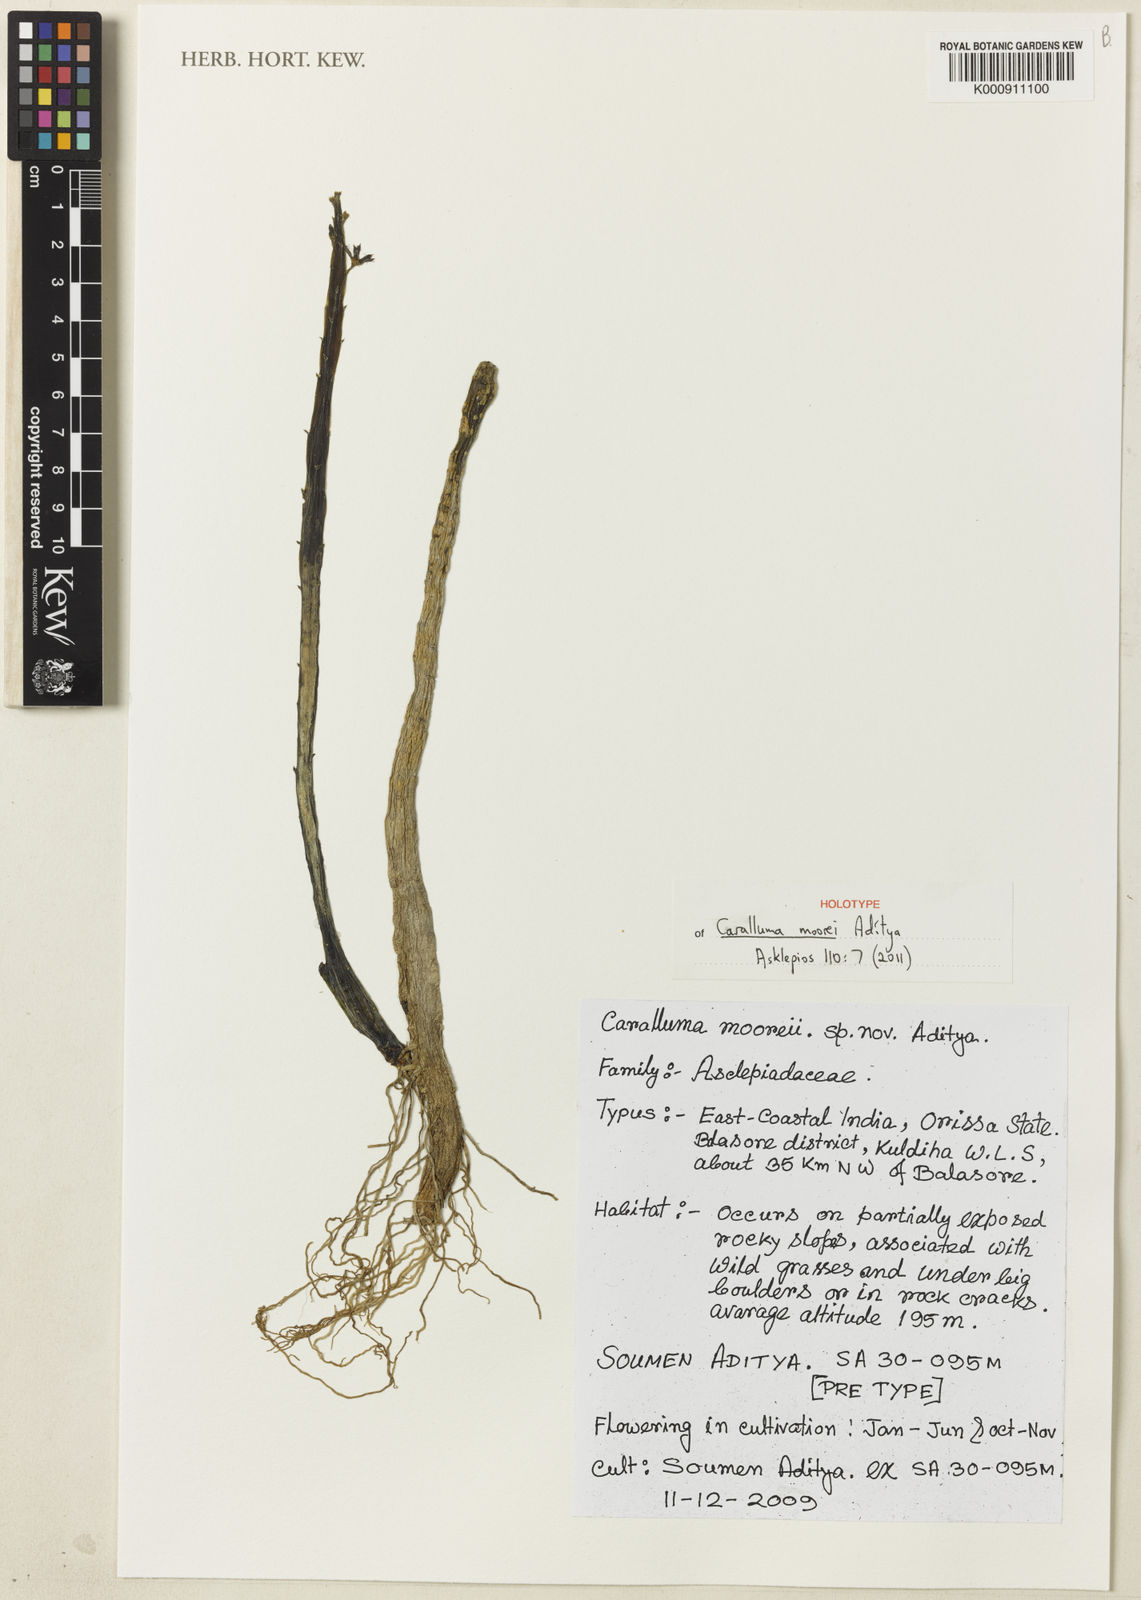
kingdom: Plantae
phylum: Tracheophyta
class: Magnoliopsida
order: Gentianales
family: Apocynaceae
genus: Ceropegia
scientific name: Ceropegia stalagmifera
